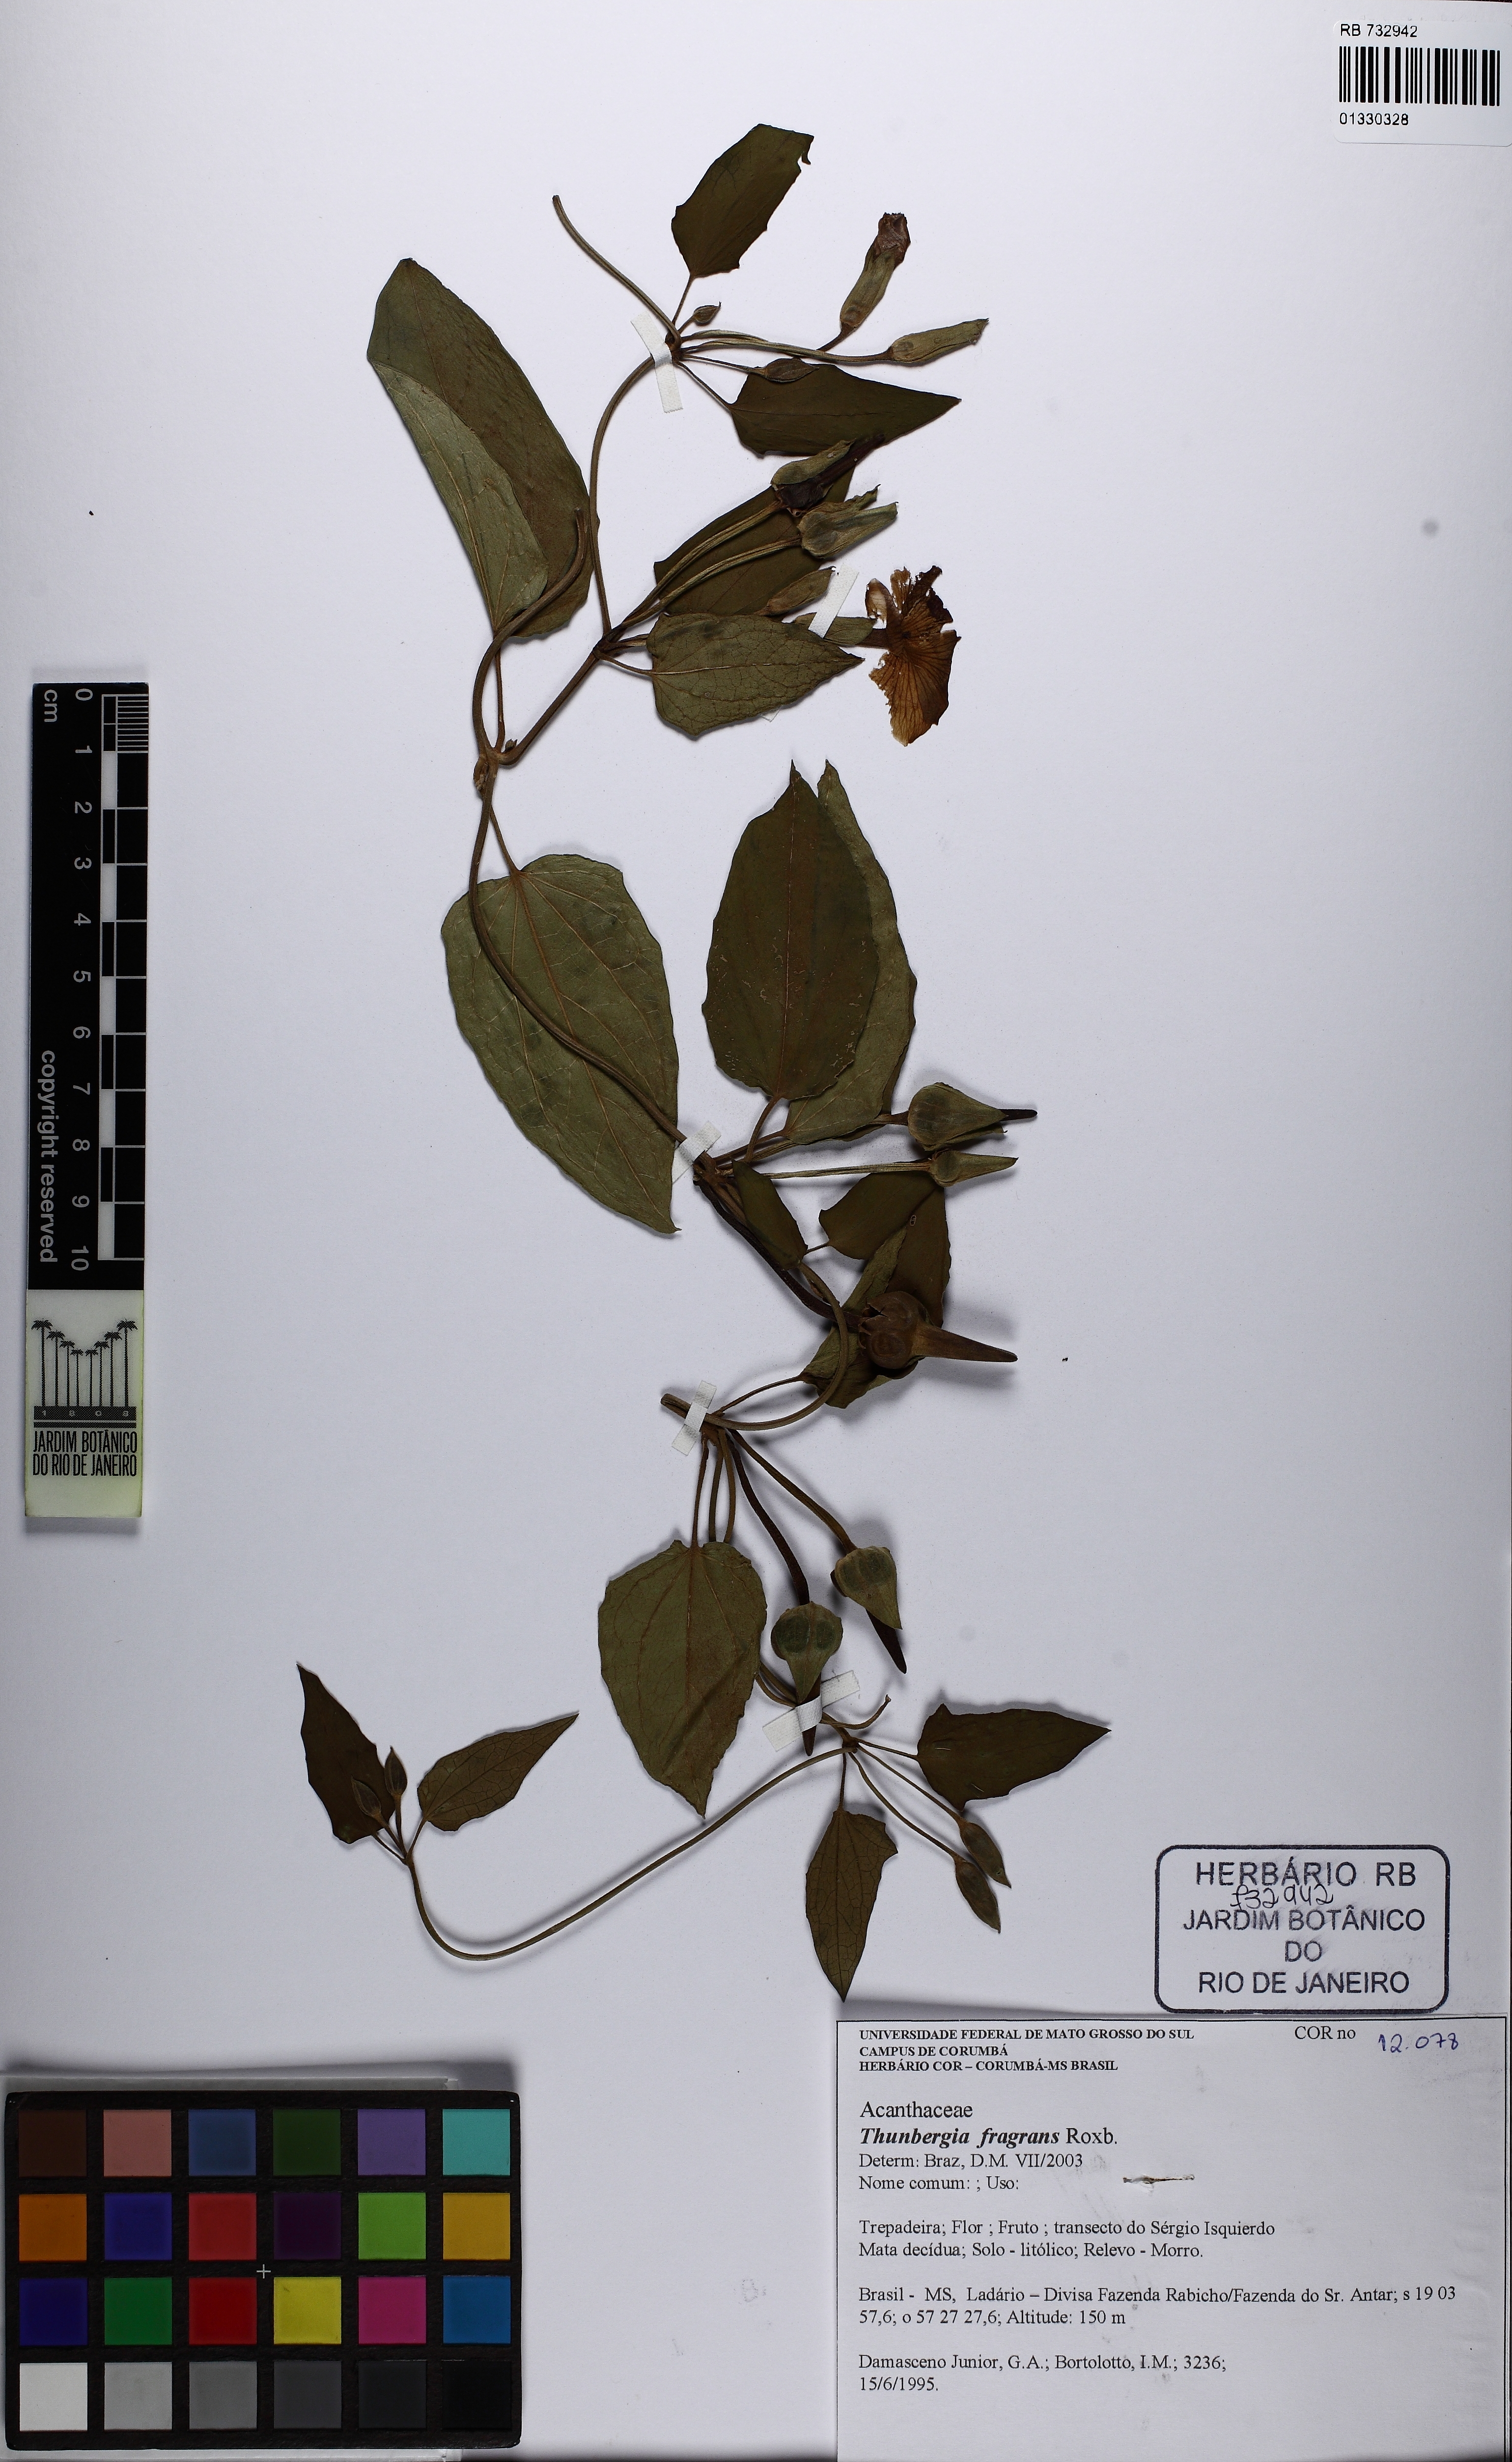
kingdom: Plantae
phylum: Tracheophyta
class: Magnoliopsida
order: Lamiales
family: Acanthaceae
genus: Thunbergia
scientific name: Thunbergia fragrans
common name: Whitelady
